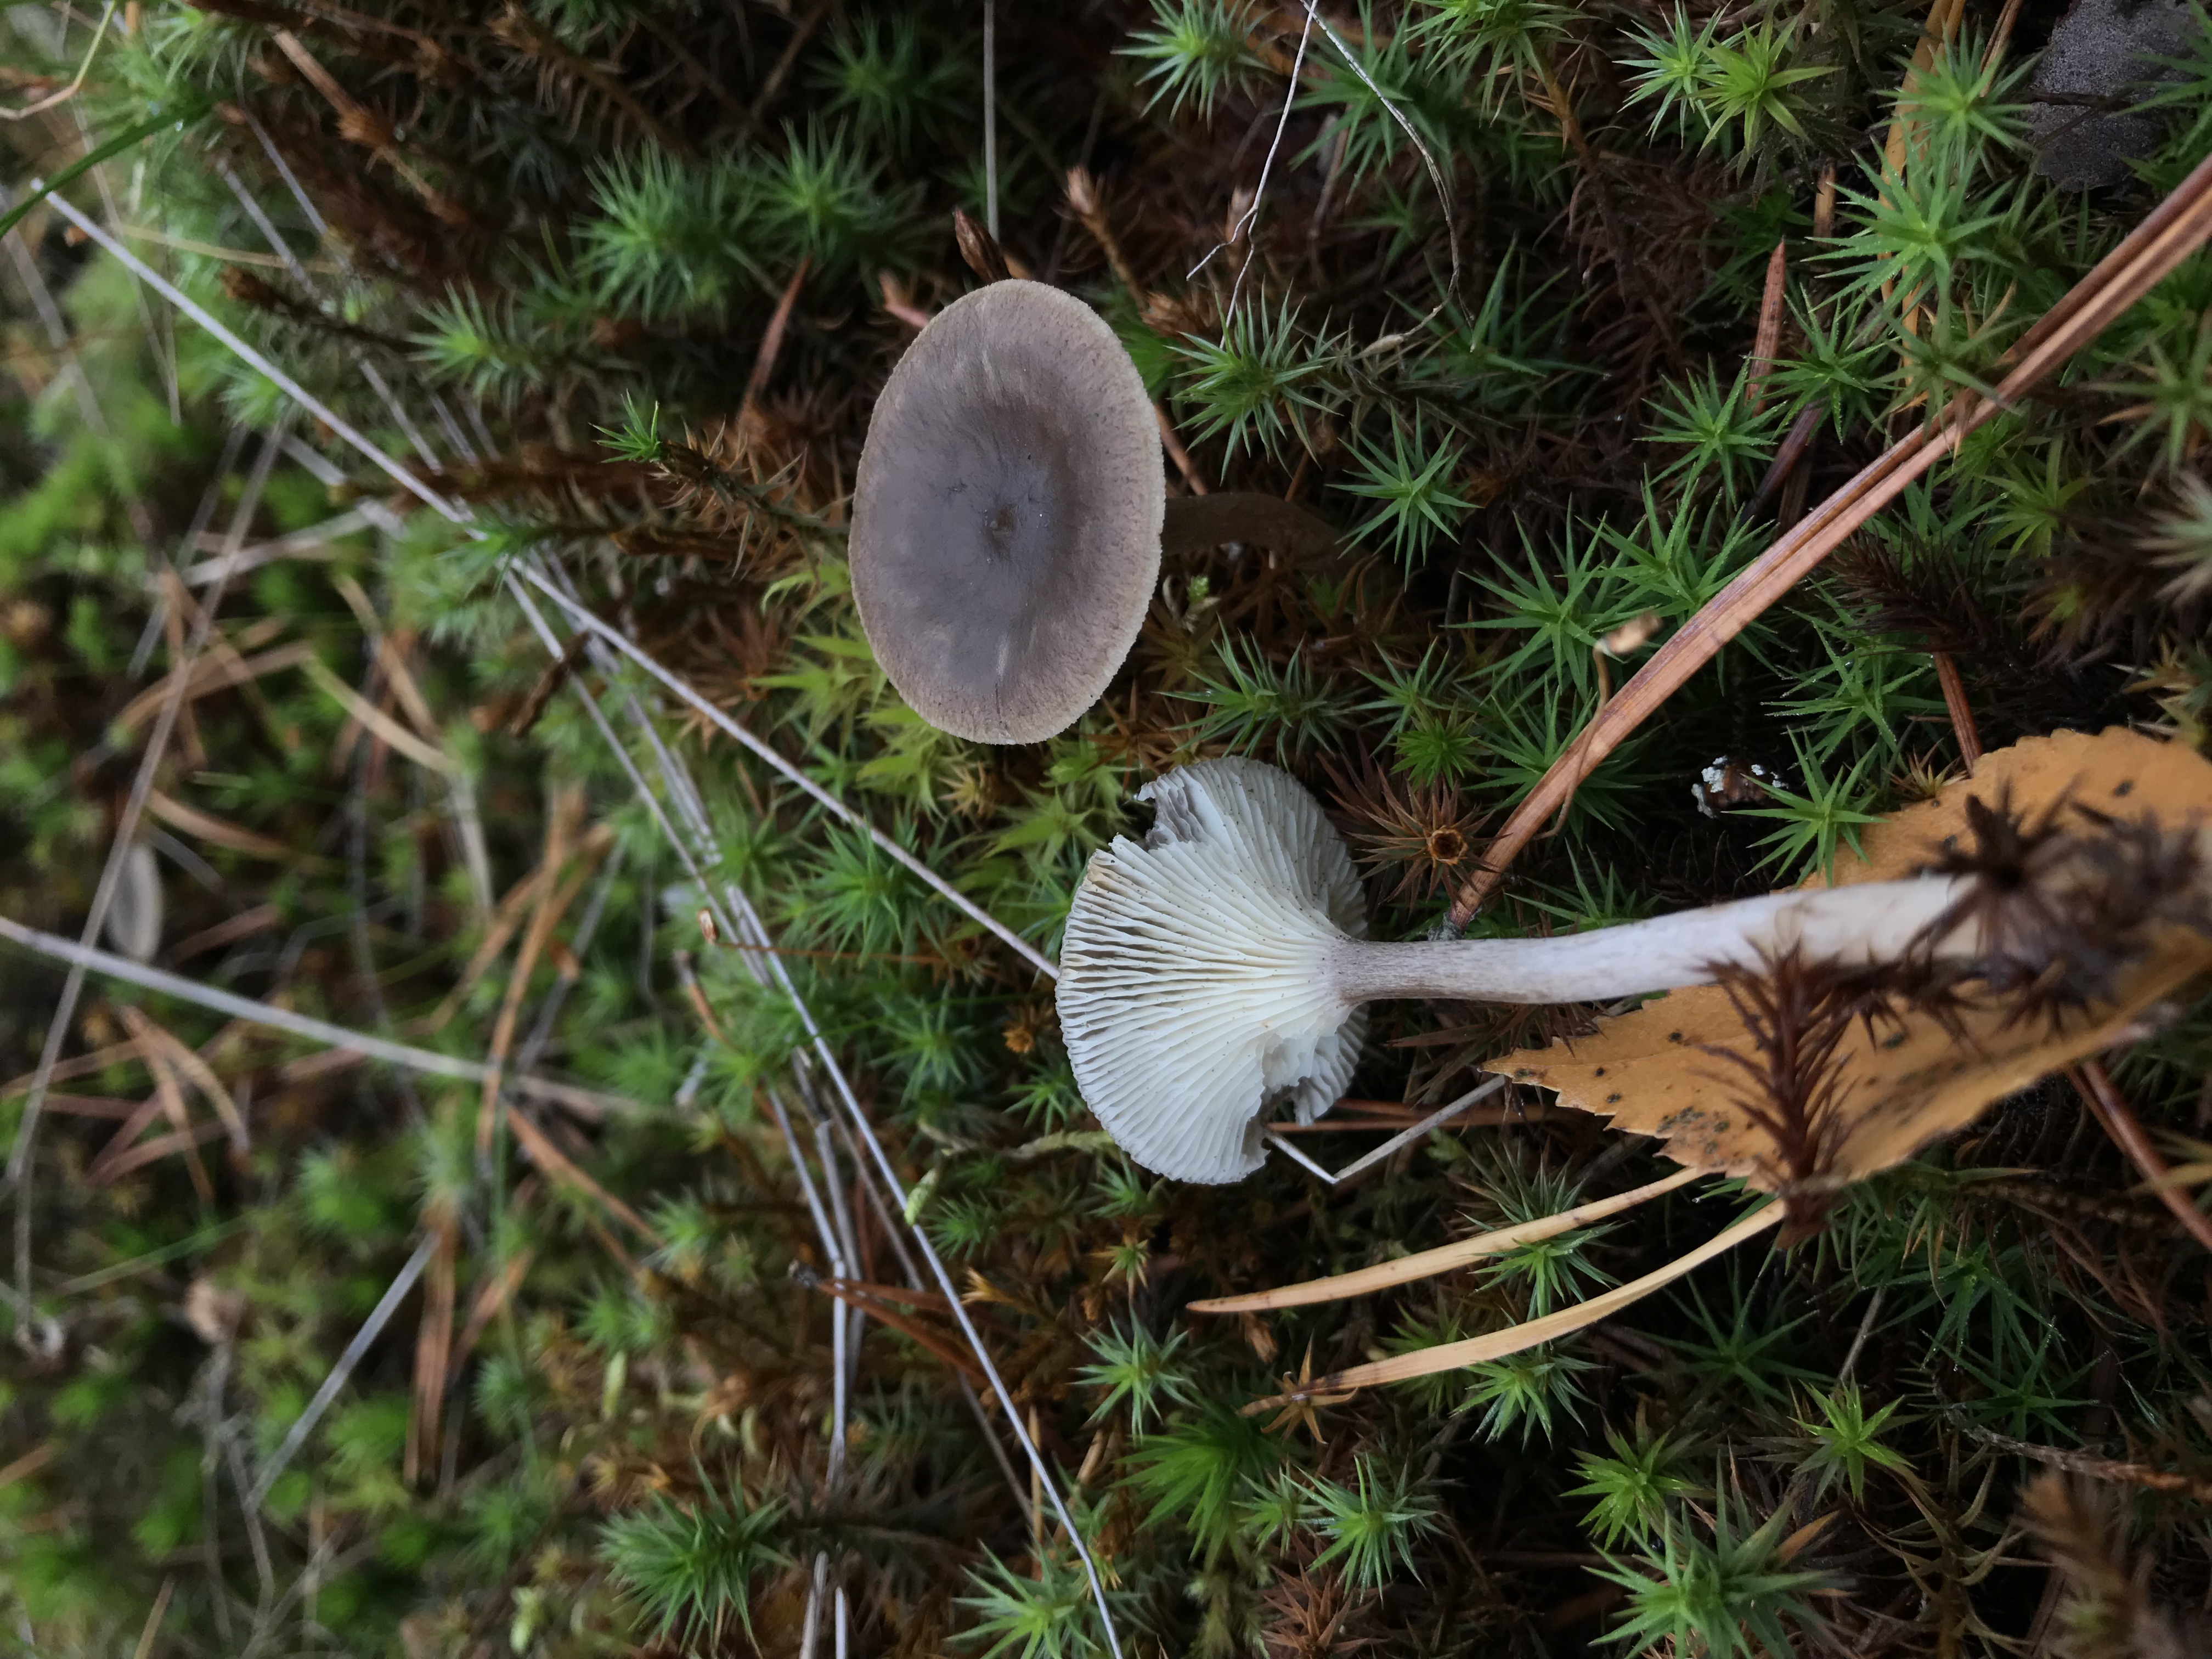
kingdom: Fungi
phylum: Basidiomycota
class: Agaricomycetes
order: Agaricales
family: Hygrophoraceae
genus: Cantharellula
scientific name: Cantharellula umbonata
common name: The humpback
